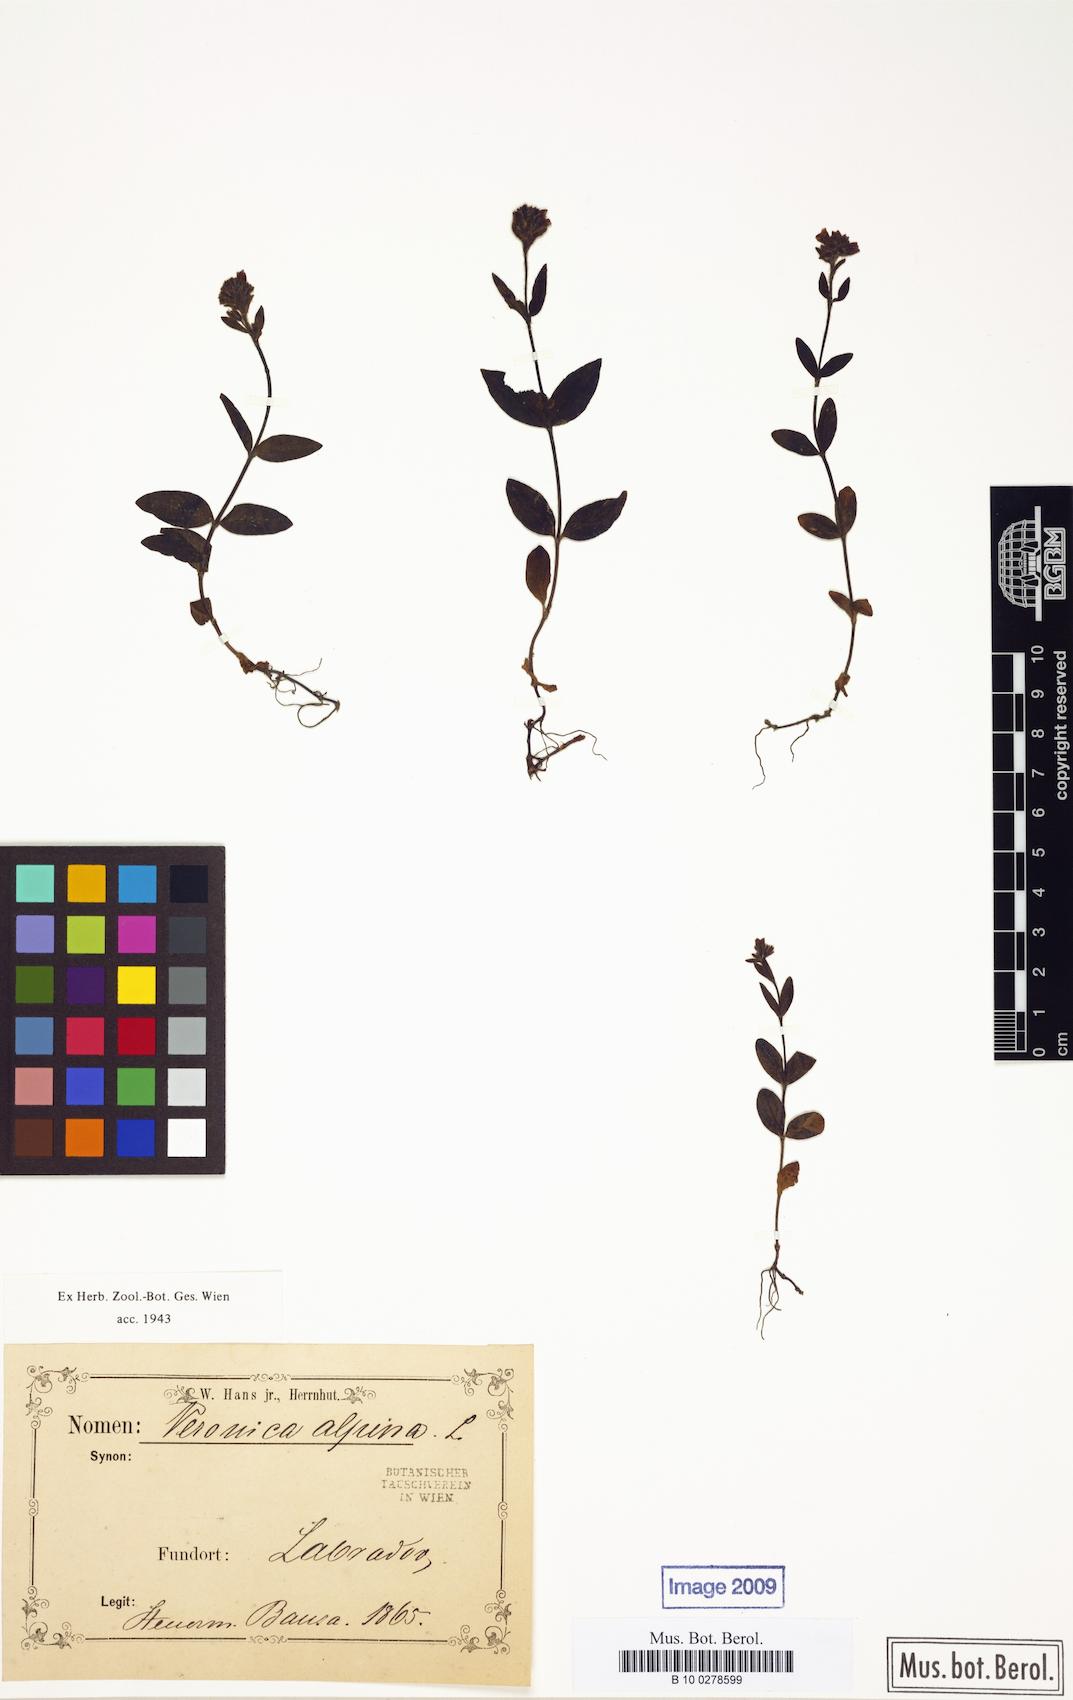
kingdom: Plantae
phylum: Tracheophyta
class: Magnoliopsida
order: Lamiales
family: Plantaginaceae
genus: Veronica
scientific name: Veronica wormskjoldii
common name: American alpine speedwell
